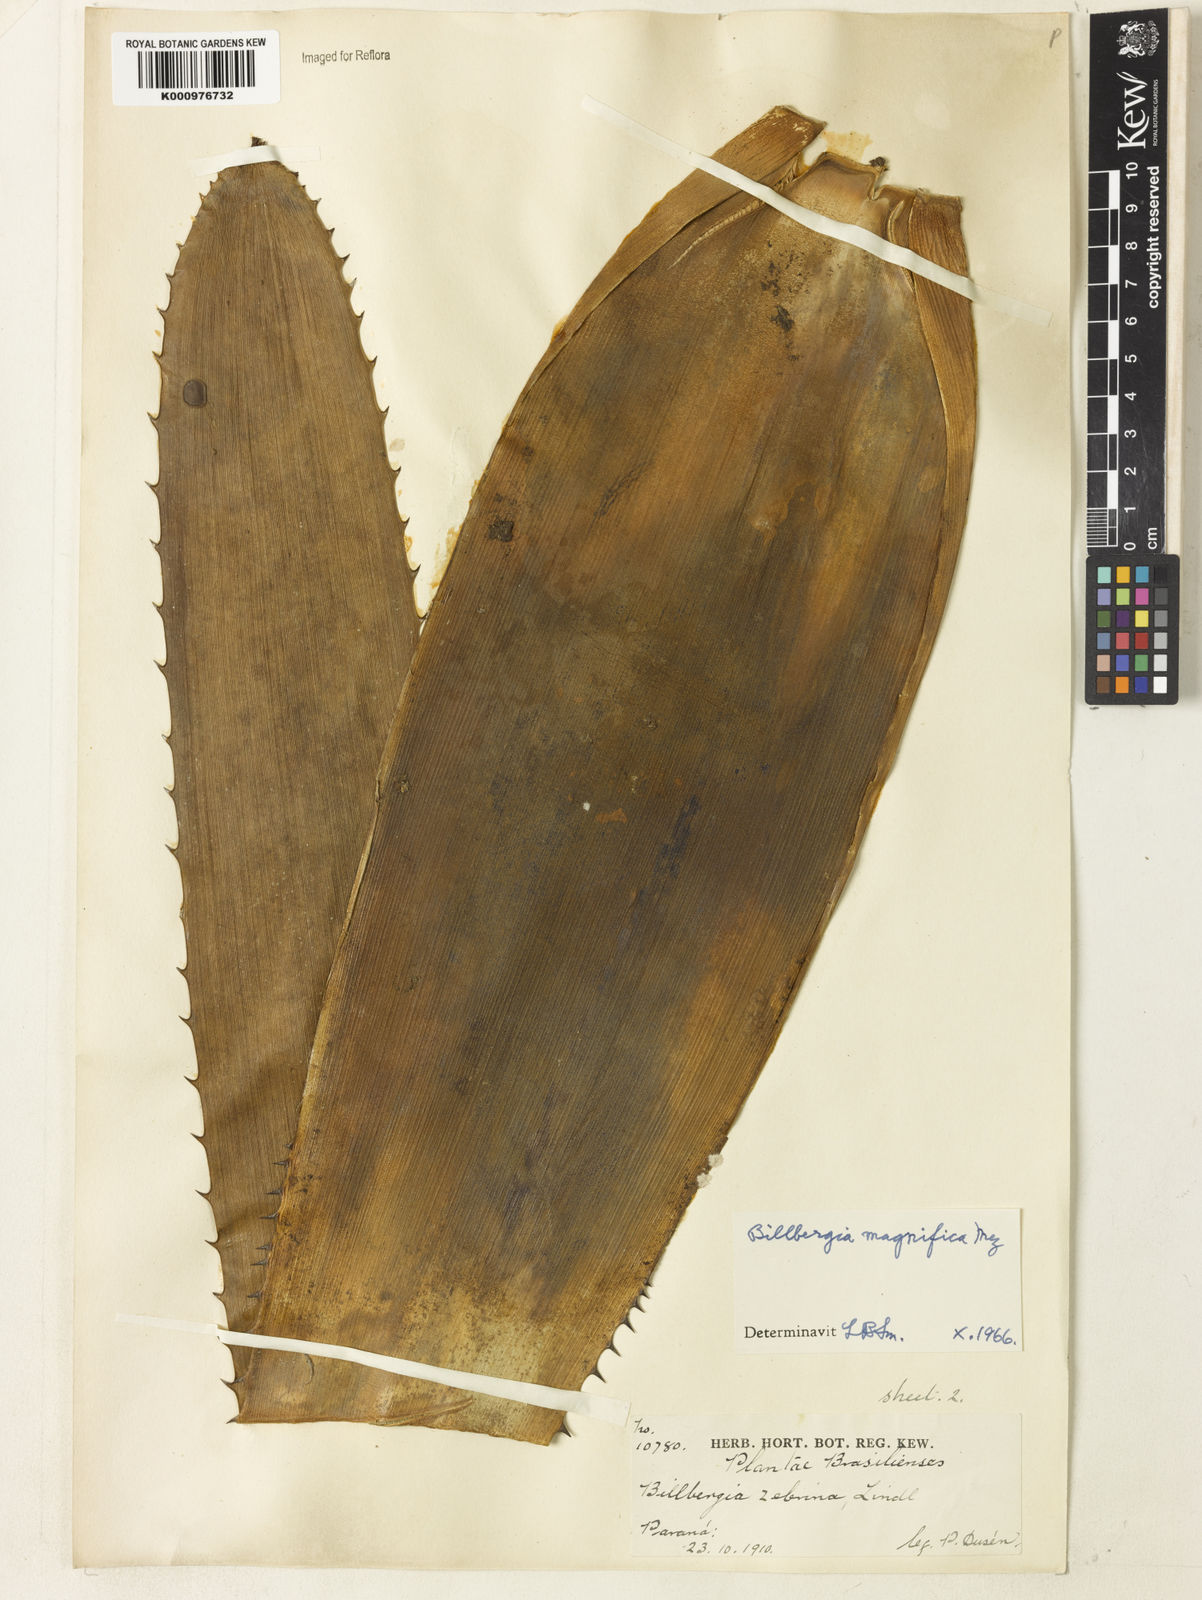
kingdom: Plantae
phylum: Tracheophyta
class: Liliopsida
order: Poales
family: Bromeliaceae
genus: Billbergia
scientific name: Billbergia magnifica
